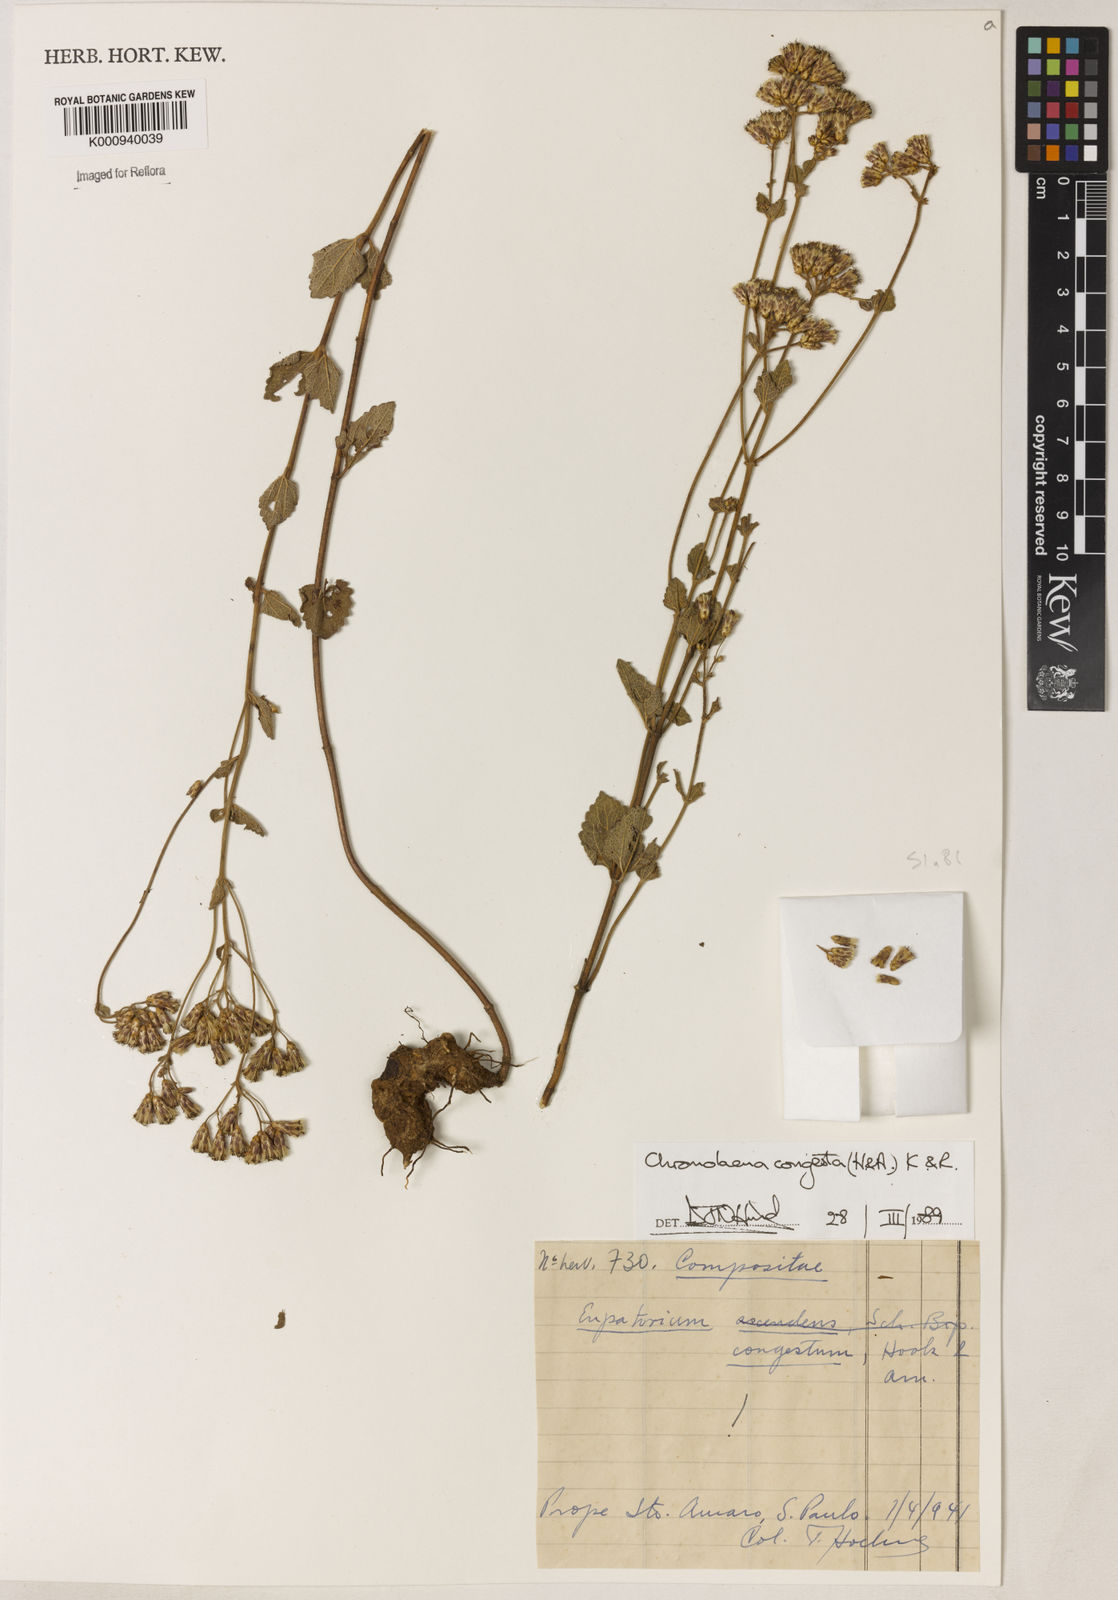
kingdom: Plantae
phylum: Tracheophyta
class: Magnoliopsida
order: Asterales
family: Asteraceae
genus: Chromolaena
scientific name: Chromolaena congesta
